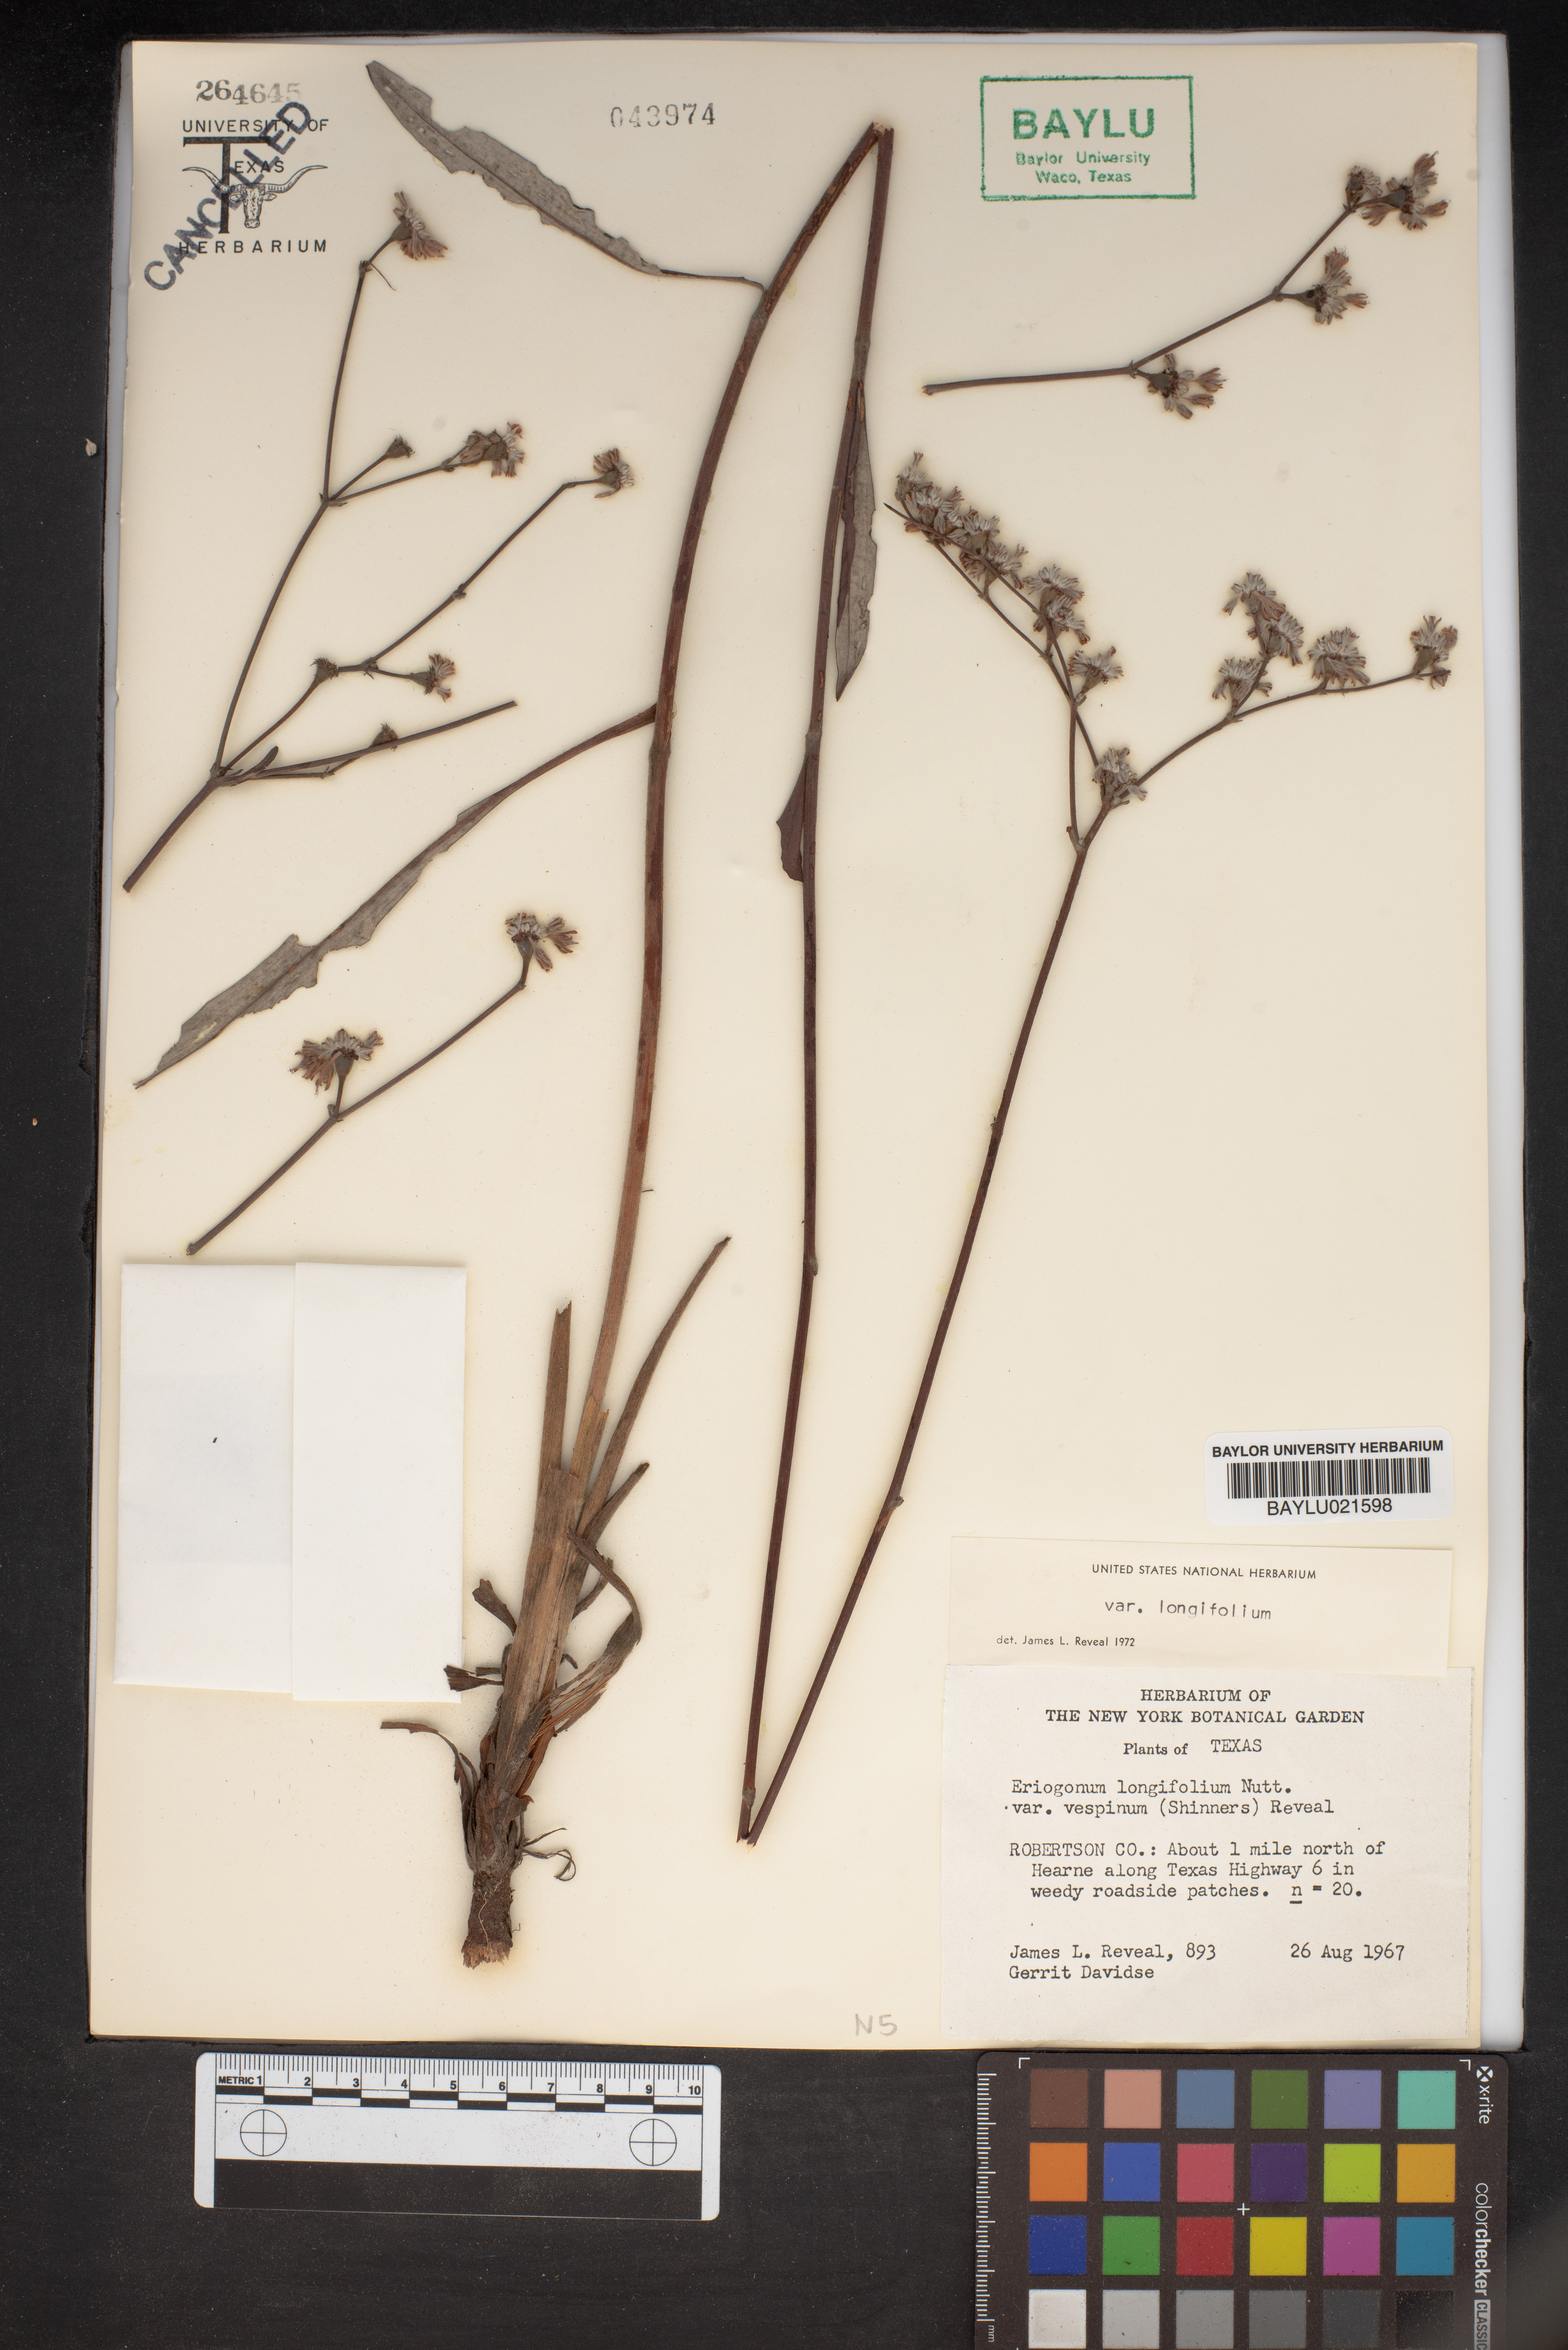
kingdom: Plantae
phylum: Tracheophyta
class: Magnoliopsida
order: Caryophyllales
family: Polygonaceae
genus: Eriogonum
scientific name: Eriogonum longifolium
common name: Longleaf wild buckwheat
